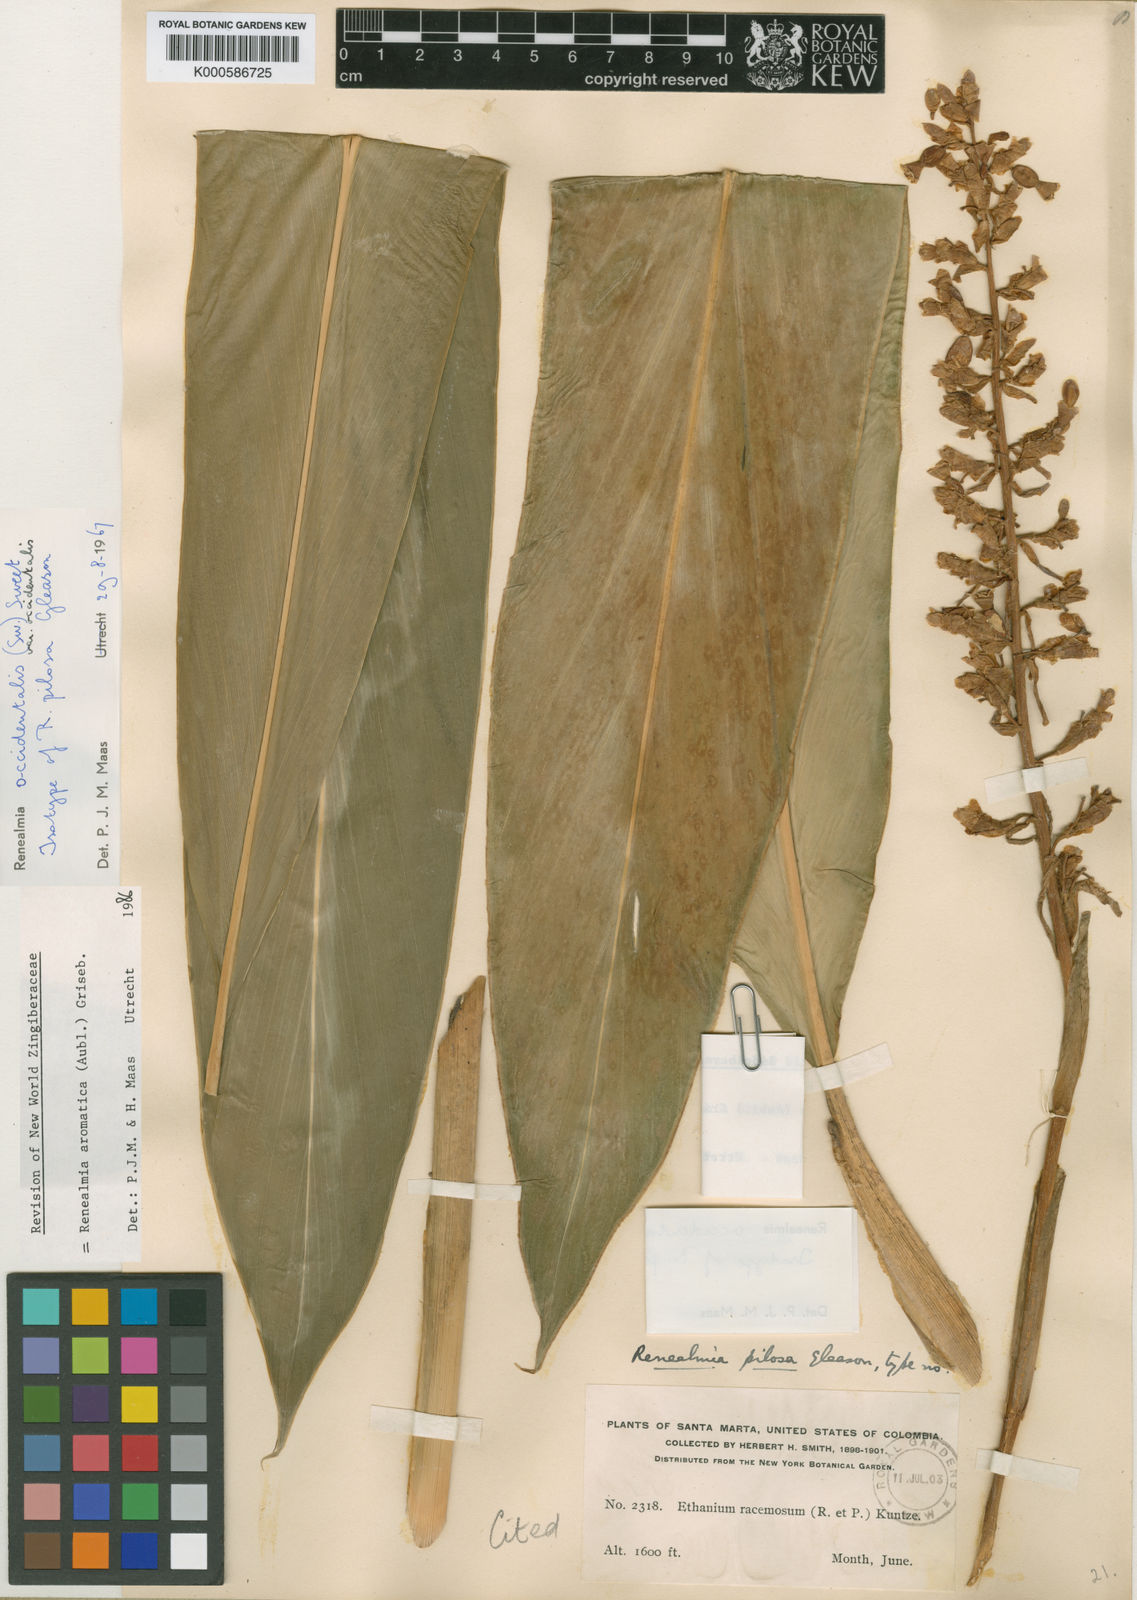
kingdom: Plantae
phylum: Tracheophyta
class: Liliopsida
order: Zingiberales
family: Zingiberaceae
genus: Renealmia
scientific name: Renealmia aromatica
